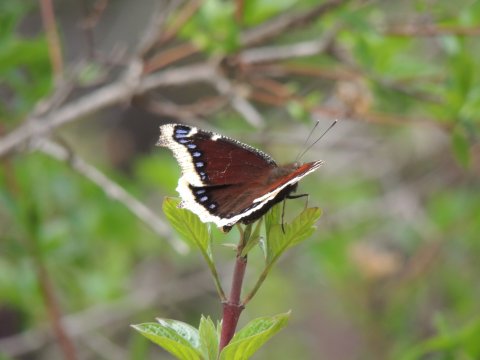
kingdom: Animalia
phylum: Arthropoda
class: Insecta
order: Lepidoptera
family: Nymphalidae
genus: Nymphalis
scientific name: Nymphalis antiopa
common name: Mourning Cloak
